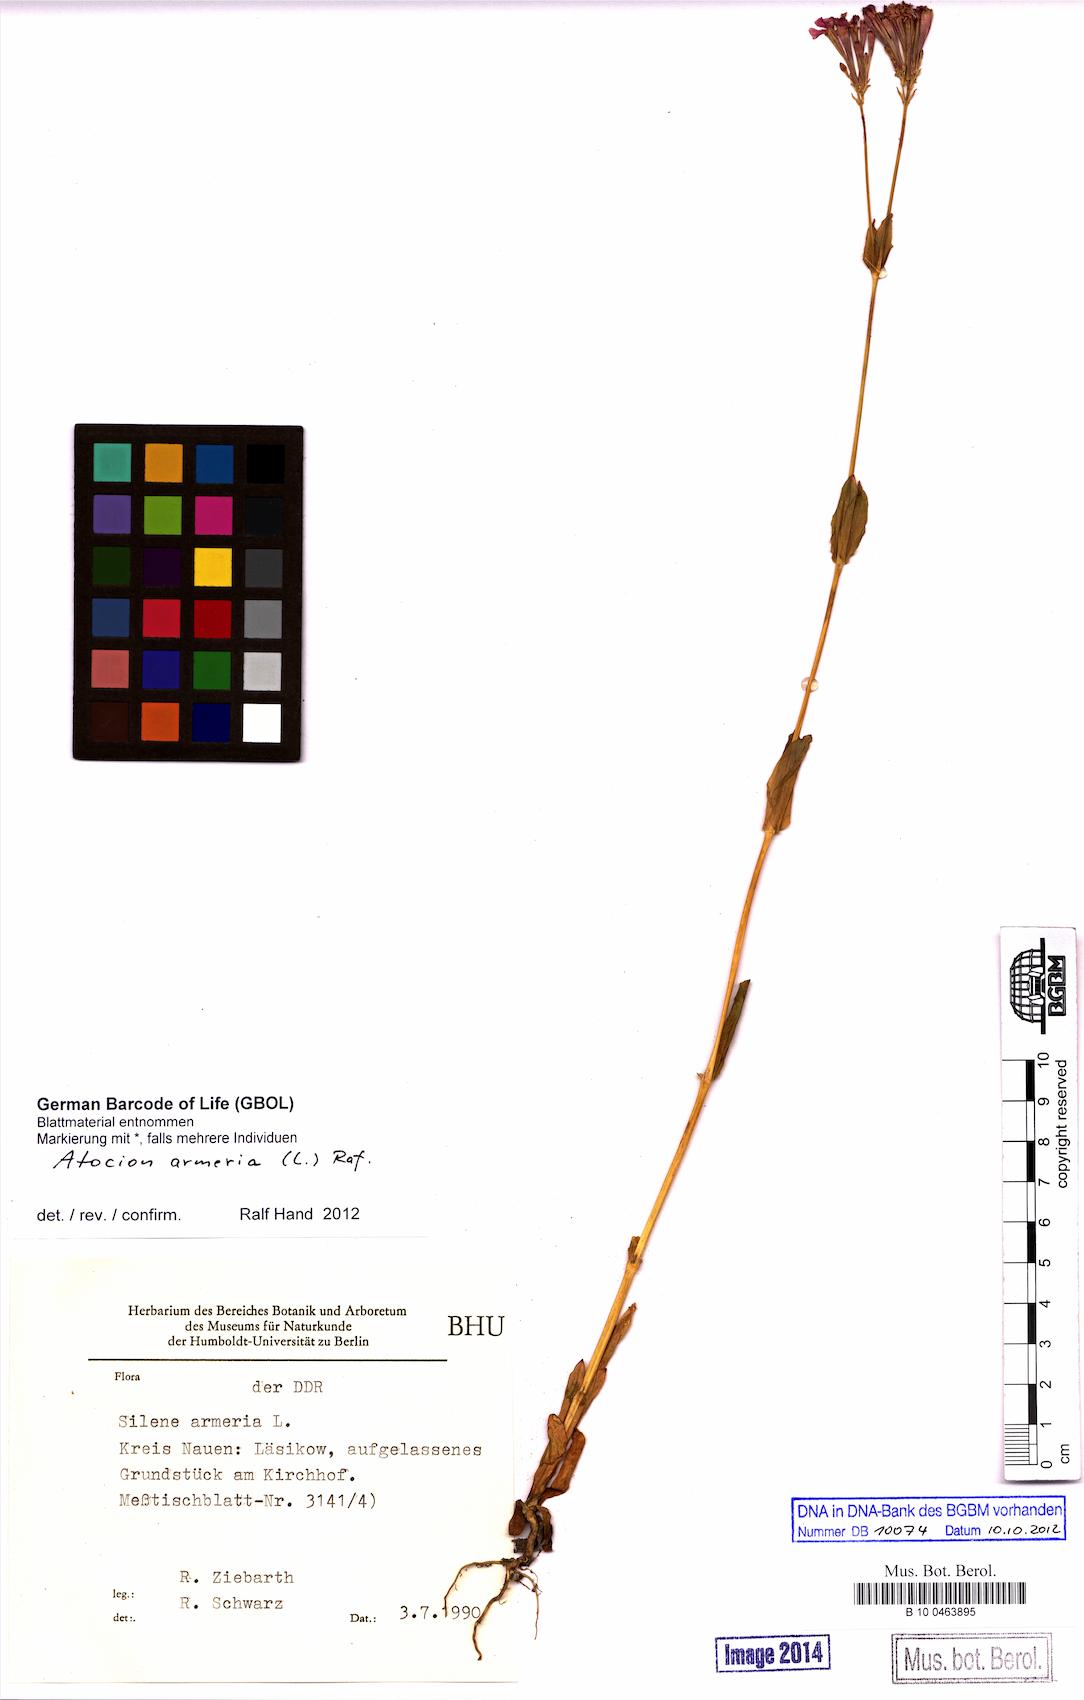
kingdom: Plantae
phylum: Tracheophyta
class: Magnoliopsida
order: Caryophyllales
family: Caryophyllaceae
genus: Atocion
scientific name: Atocion armeria
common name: Sweet william catchfly
